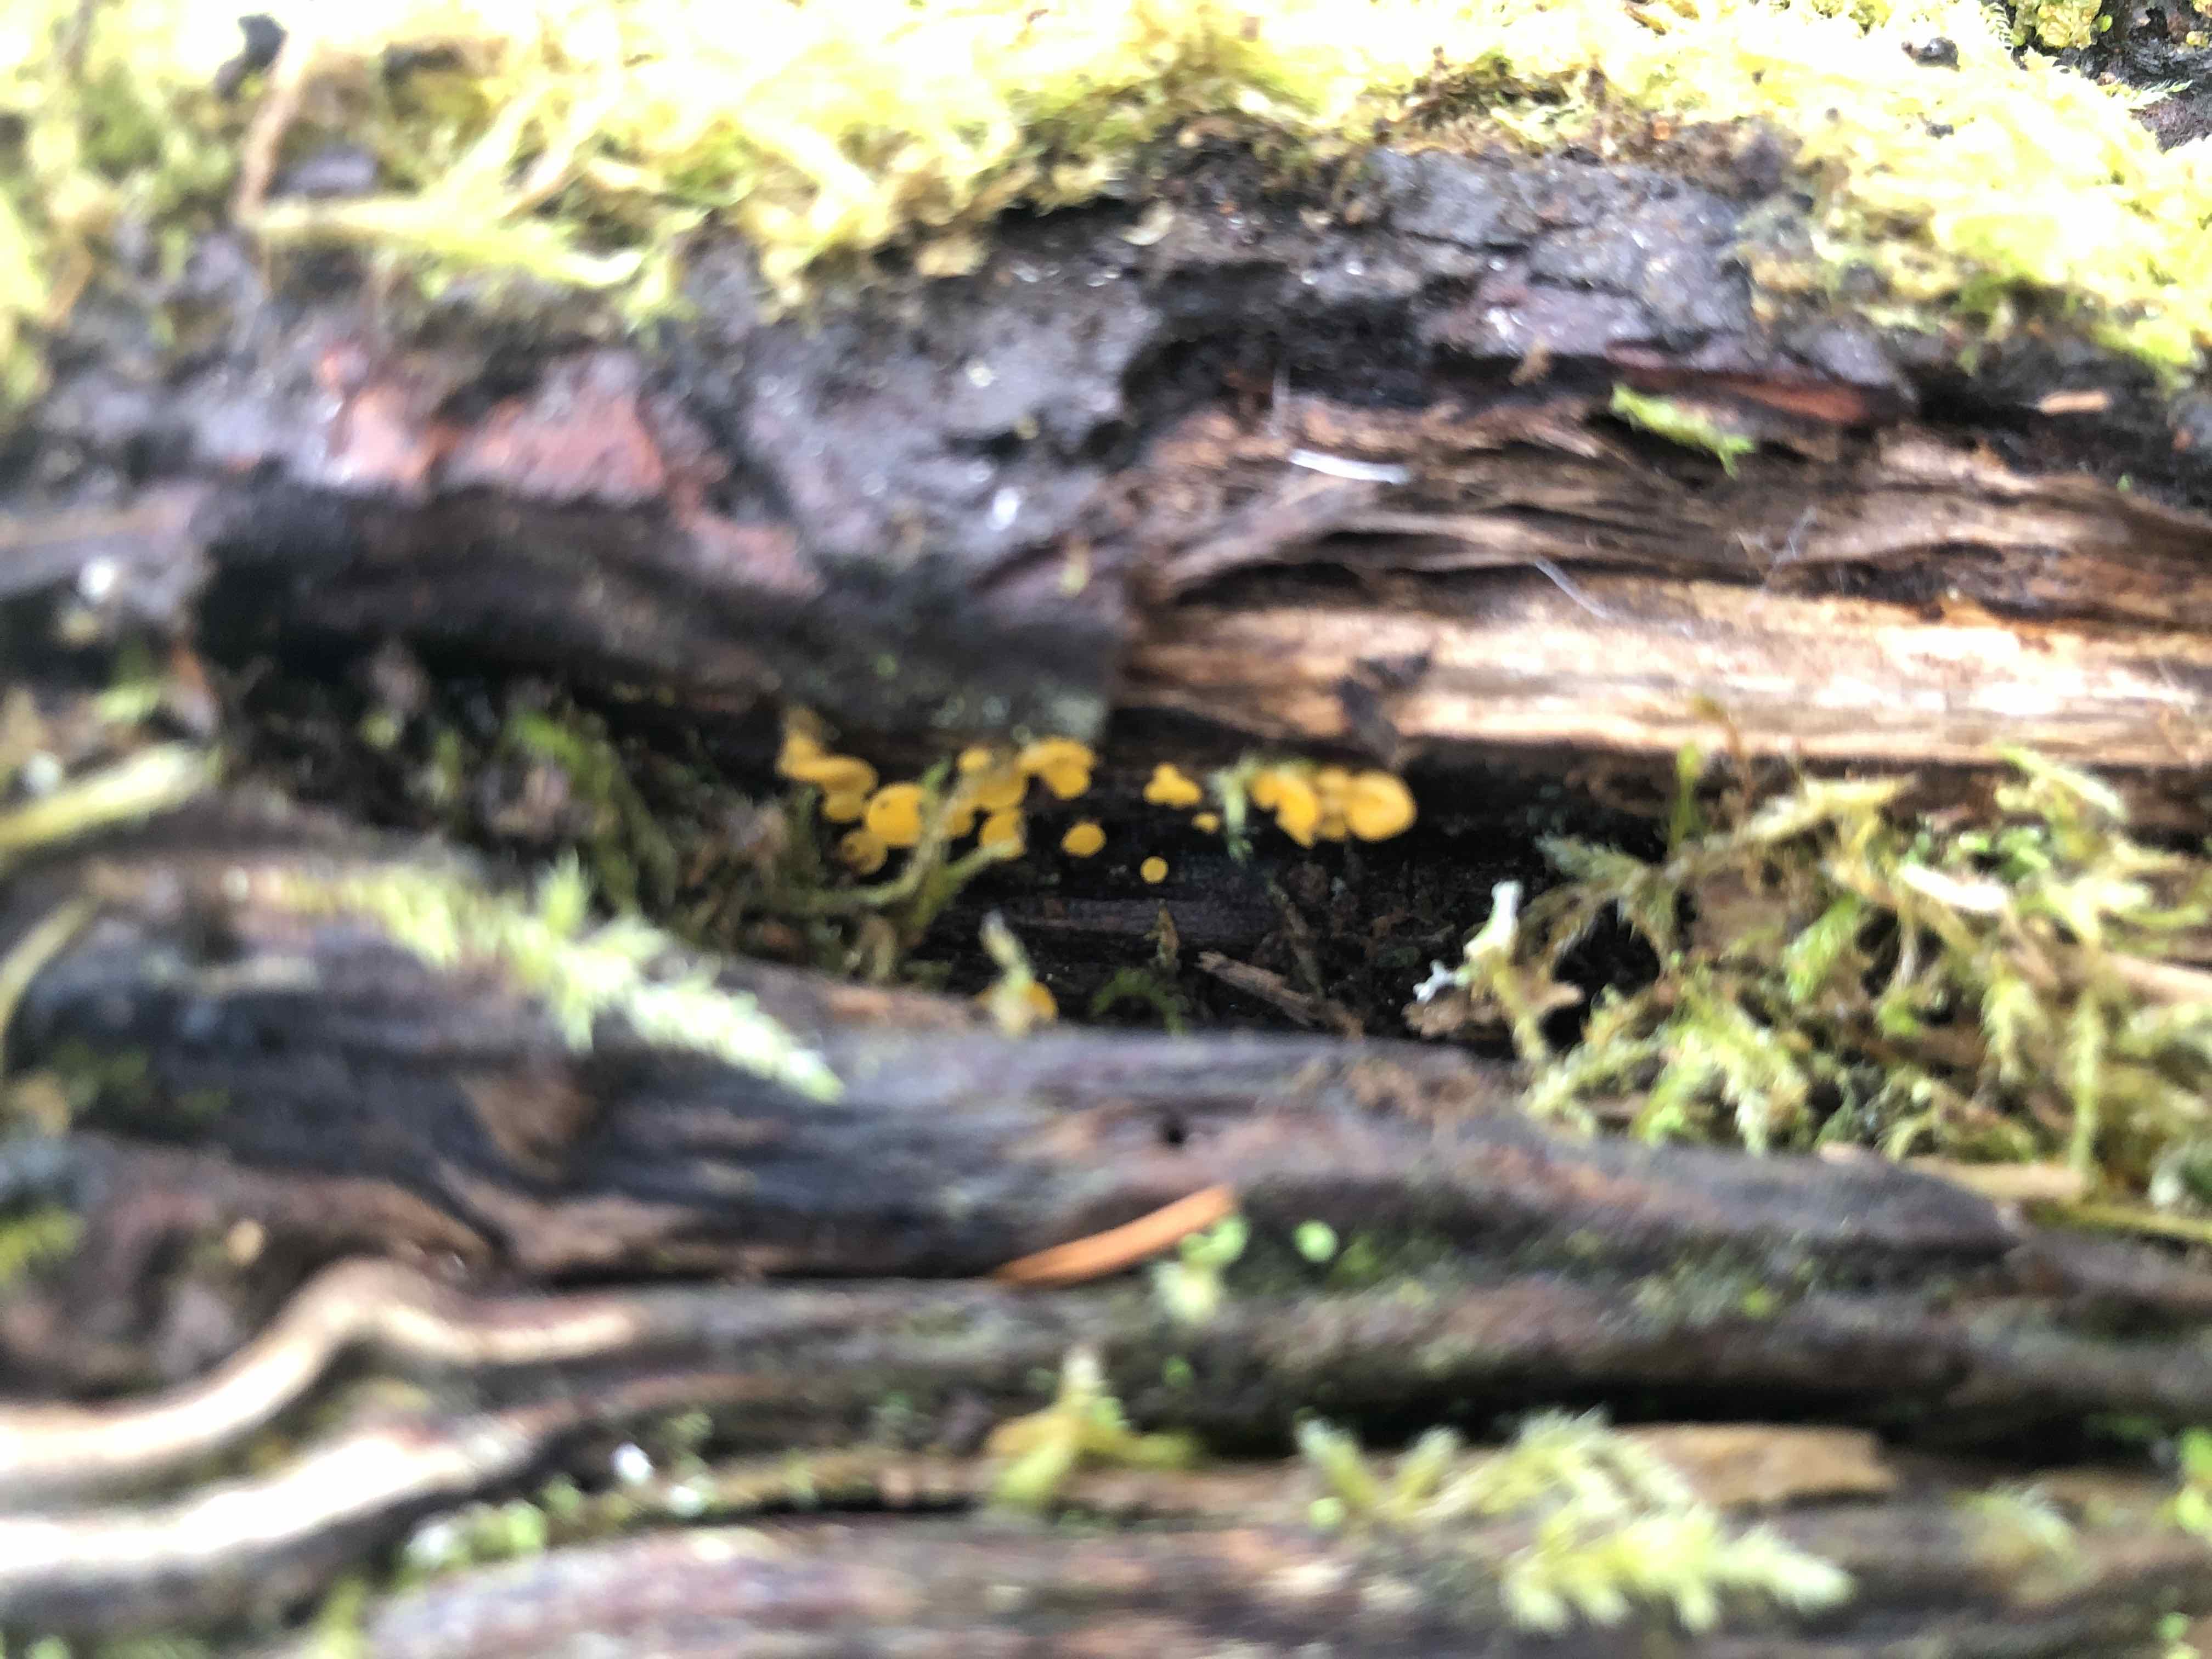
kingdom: Fungi
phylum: Ascomycota
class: Leotiomycetes
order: Helotiales
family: Helotiaceae
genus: Hymenoscyphus
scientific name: Hymenoscyphus calyculus
